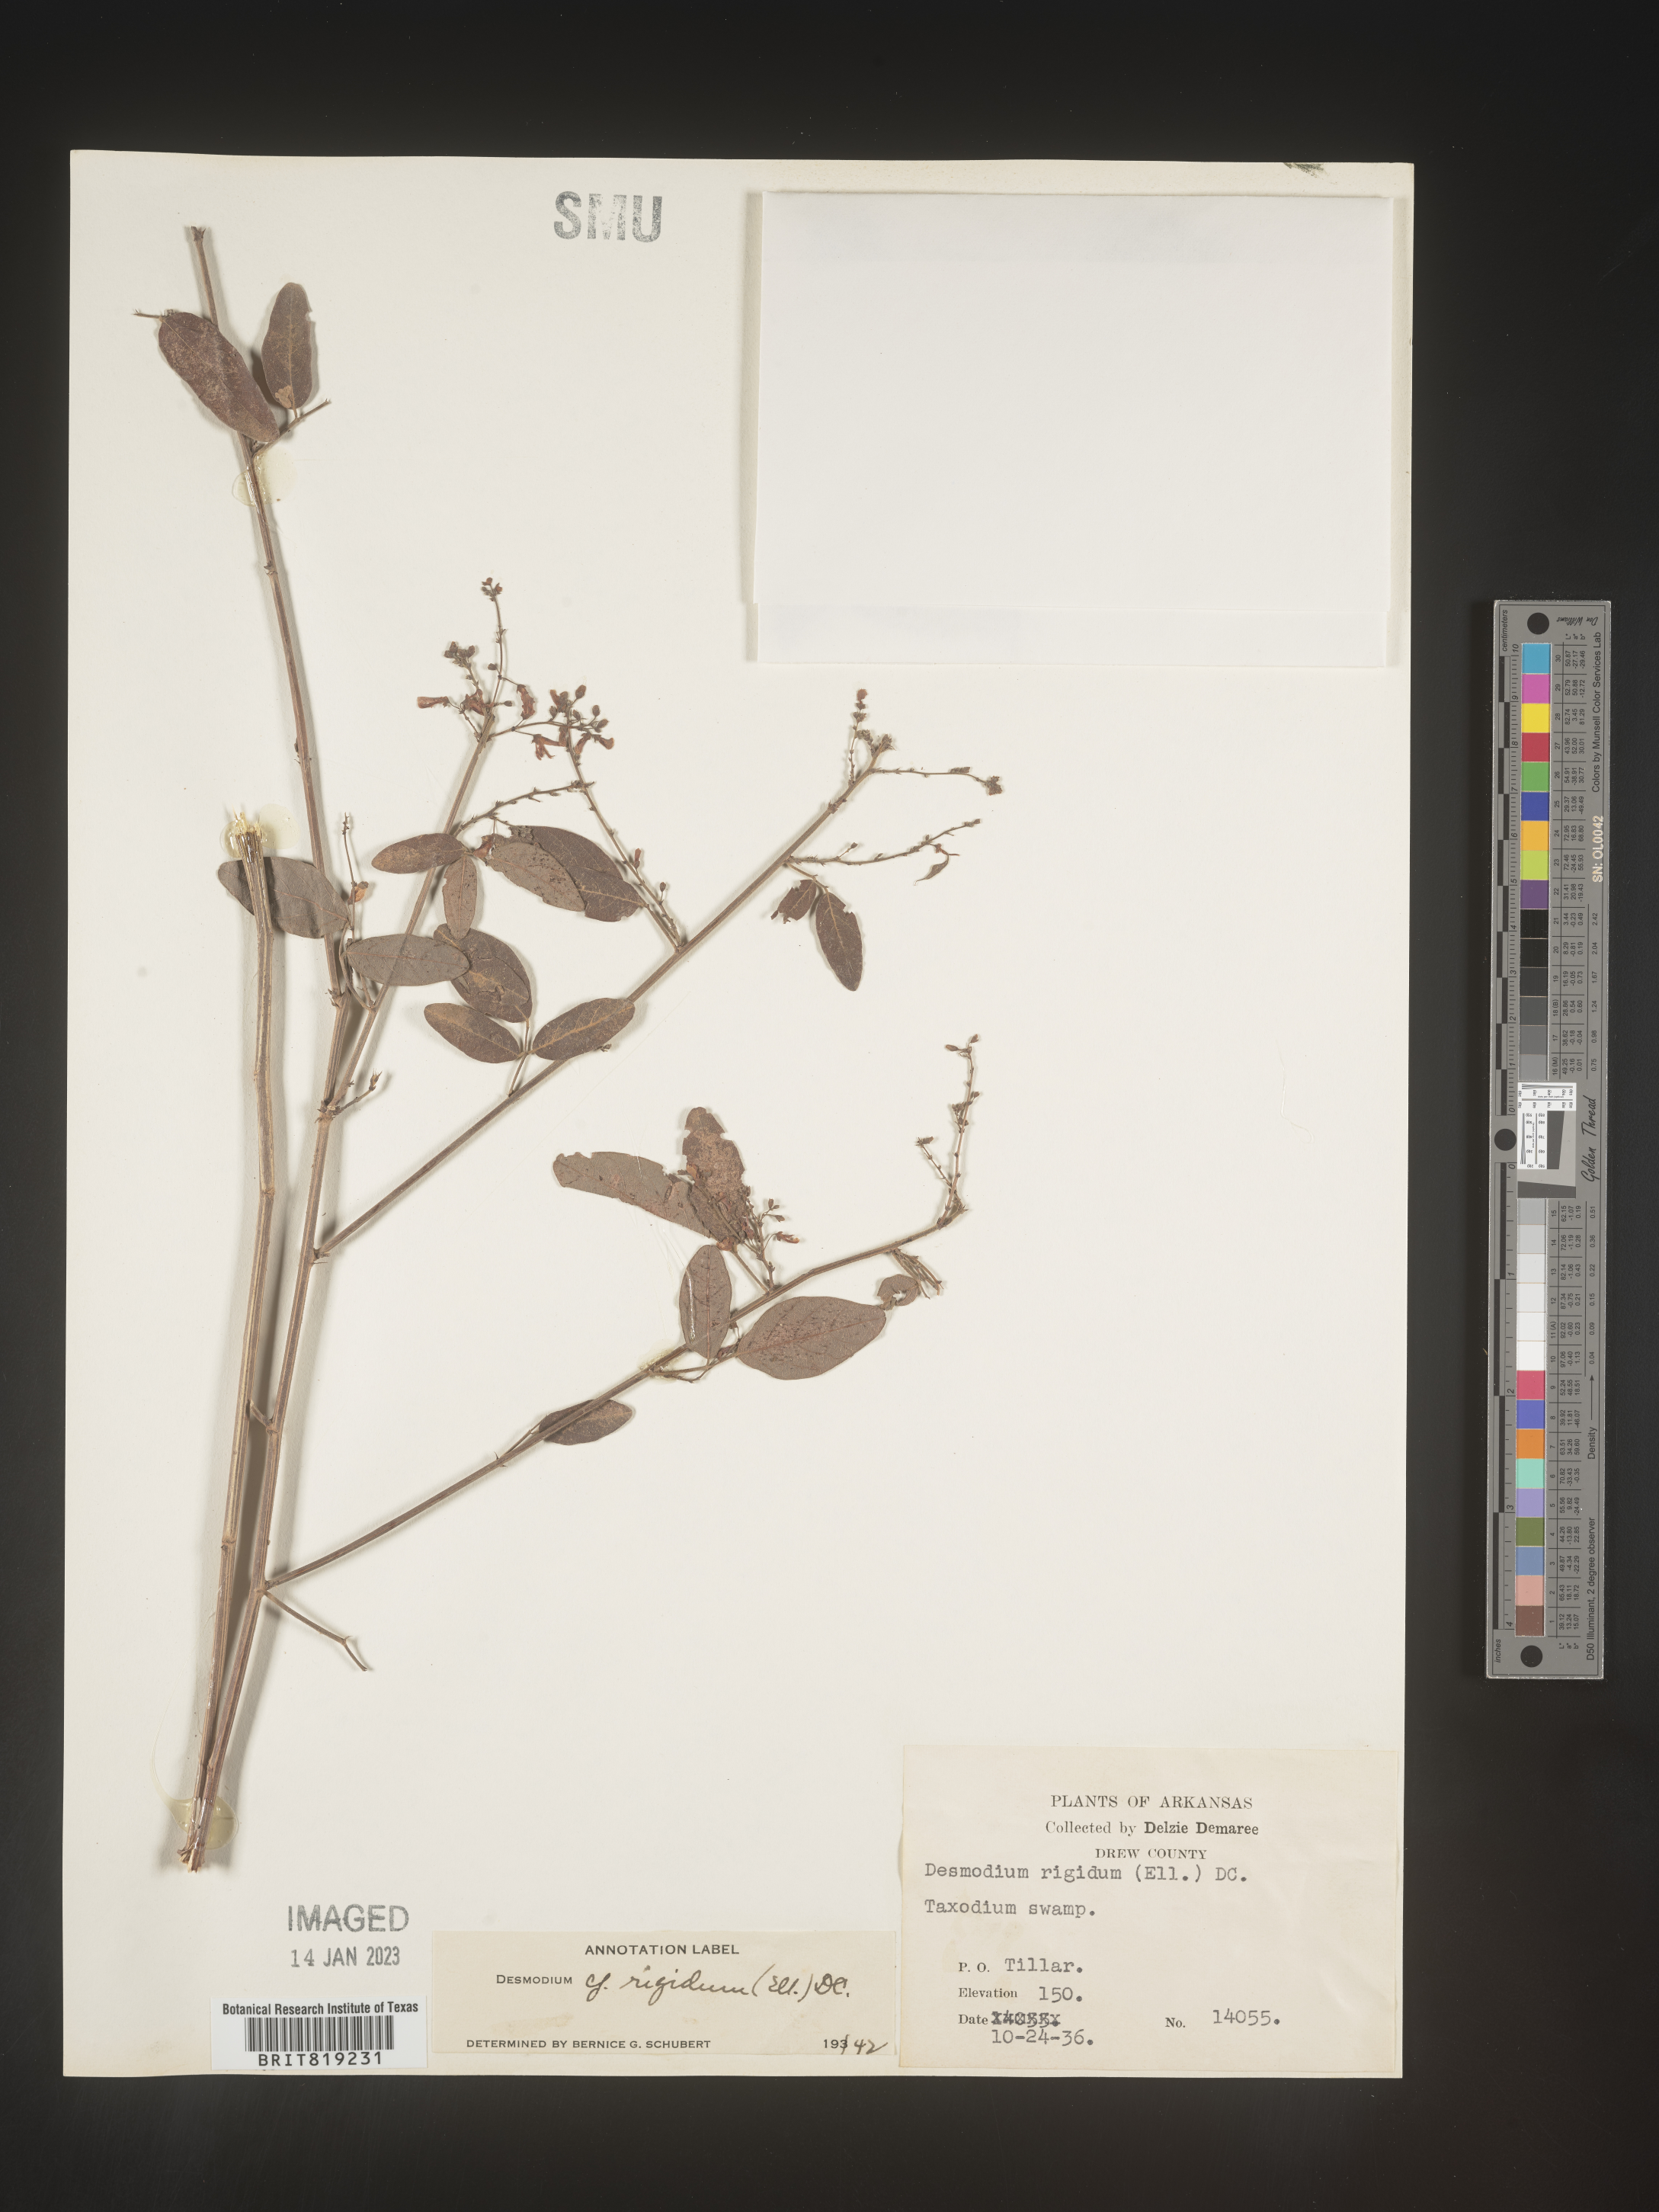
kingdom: Plantae
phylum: Tracheophyta
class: Magnoliopsida
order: Fabales
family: Fabaceae
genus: Desmodium
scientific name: Desmodium
